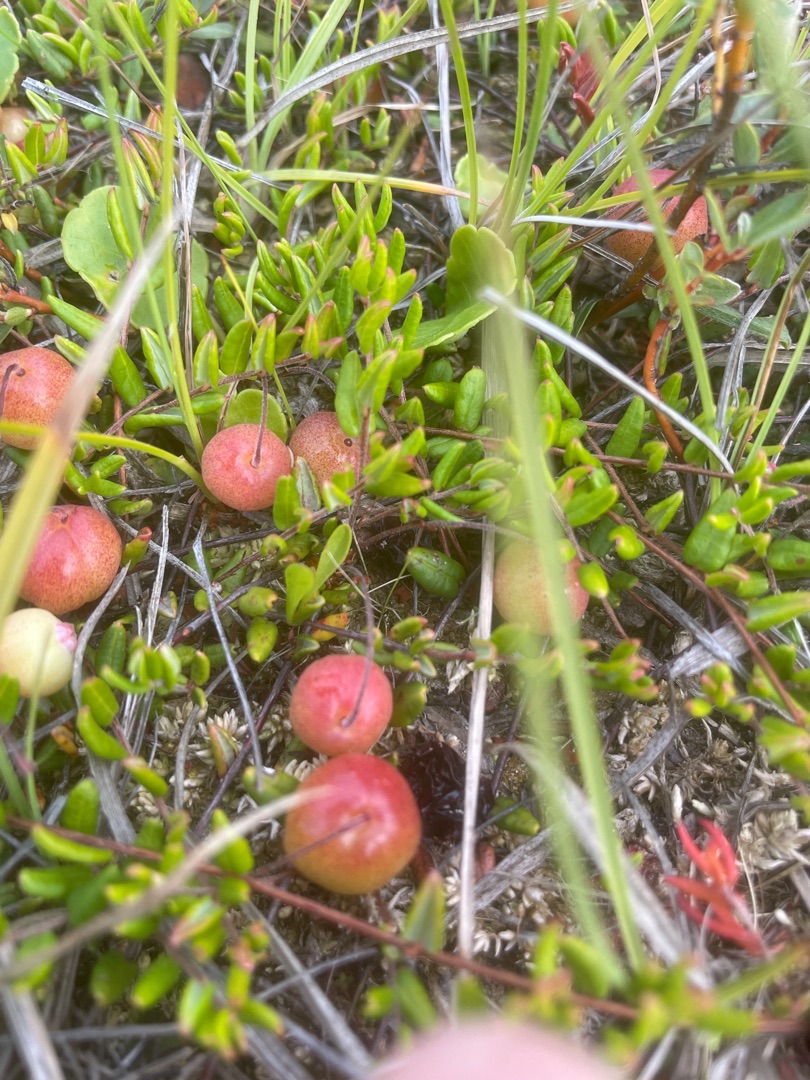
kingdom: Plantae
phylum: Tracheophyta
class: Magnoliopsida
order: Ericales
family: Ericaceae
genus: Vaccinium
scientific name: Vaccinium oxycoccos
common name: Tranebær
